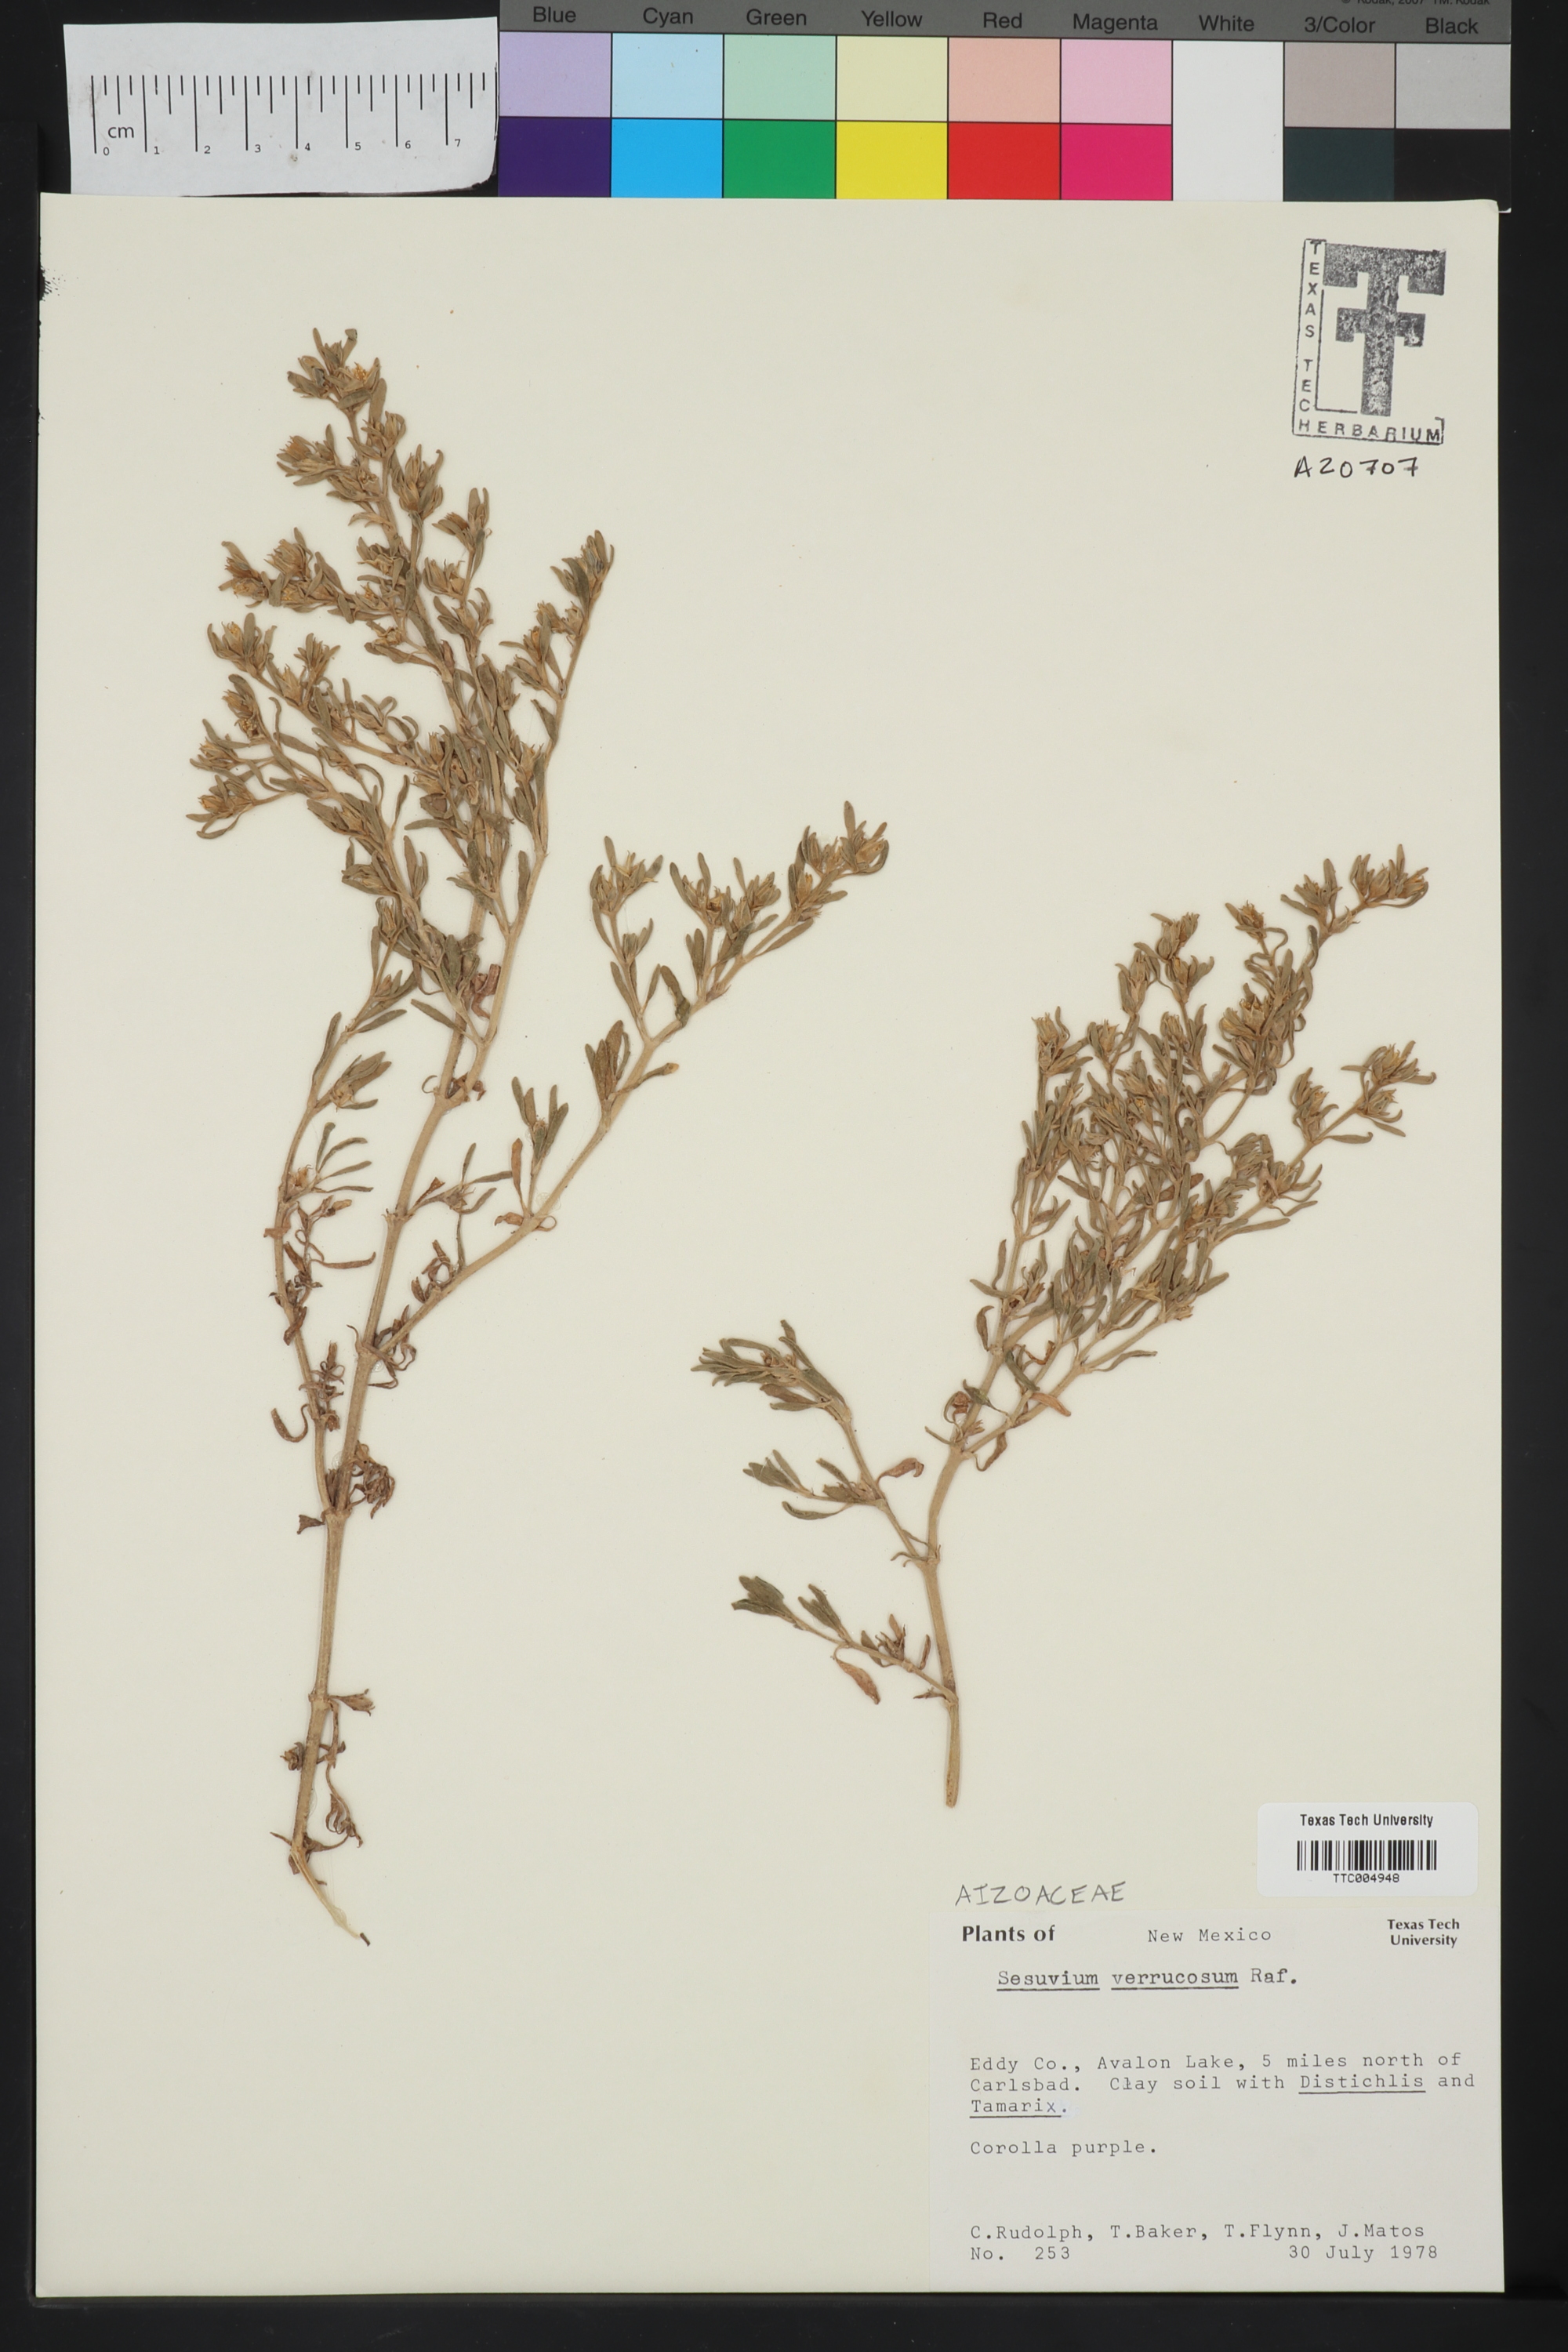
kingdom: Plantae
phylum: Tracheophyta
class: Magnoliopsida
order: Caryophyllales
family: Molluginaceae
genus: Mollugo
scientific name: Mollugo verticillata
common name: Green carpetweed
